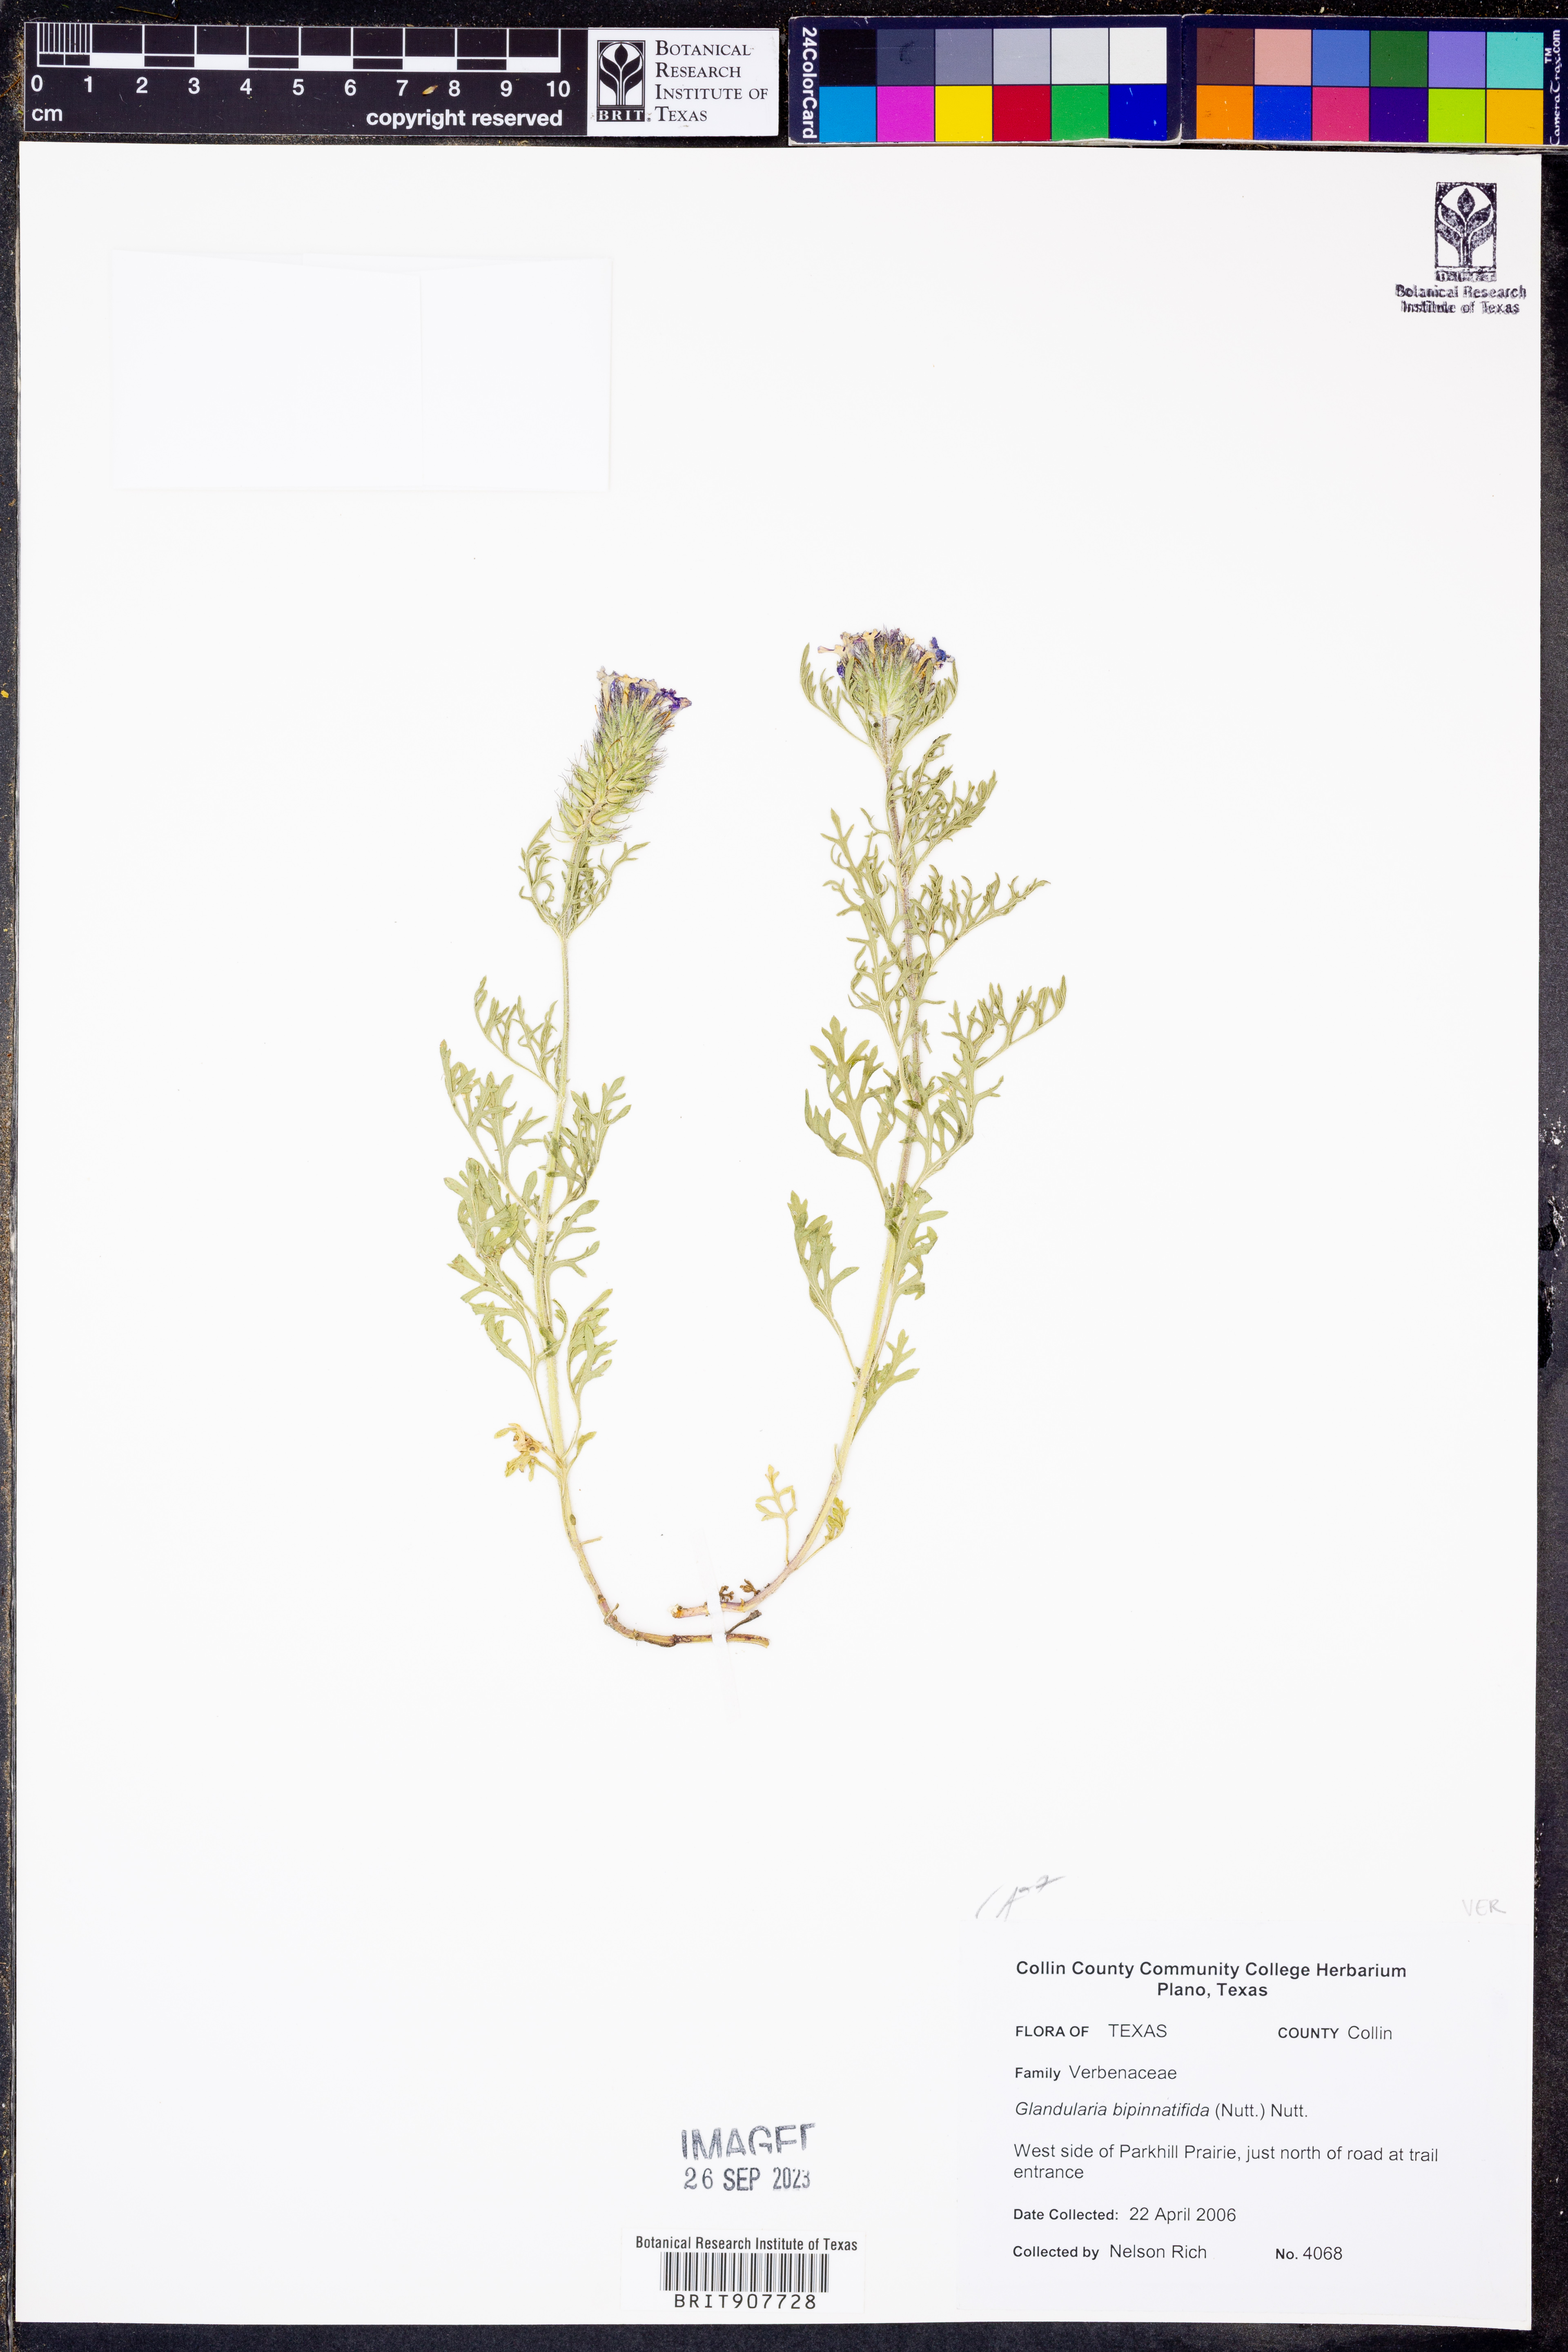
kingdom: Plantae
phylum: Tracheophyta
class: Magnoliopsida
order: Lamiales
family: Verbenaceae
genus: Verbena
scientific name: Verbena bipinnatifida
